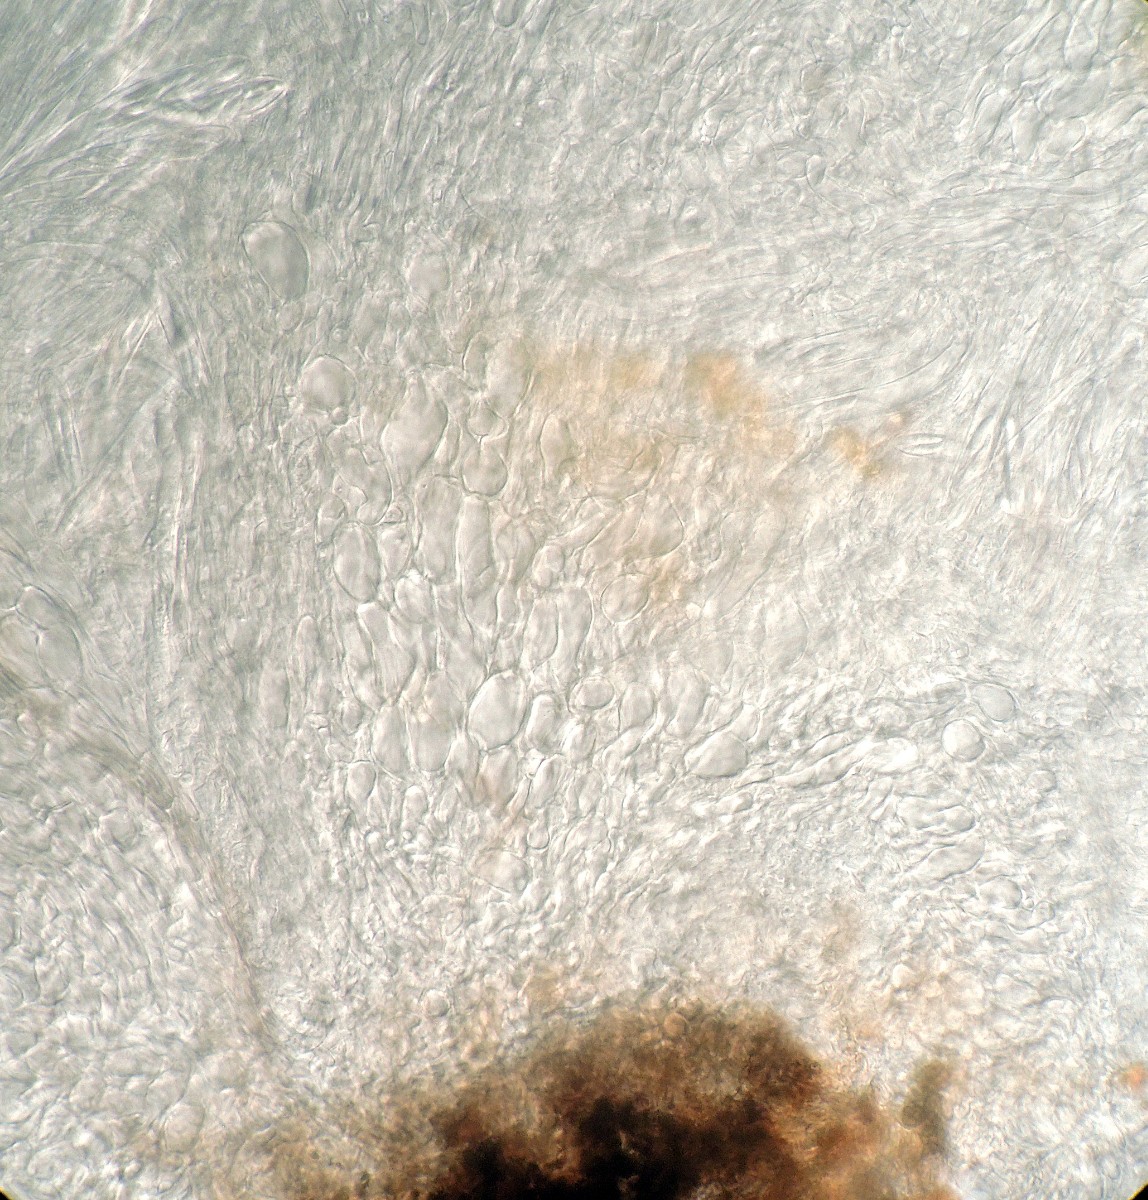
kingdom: Fungi
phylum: Ascomycota
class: Leotiomycetes
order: Helotiales
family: Pezizellaceae
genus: Calycina
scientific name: Calycina
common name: gulskive
